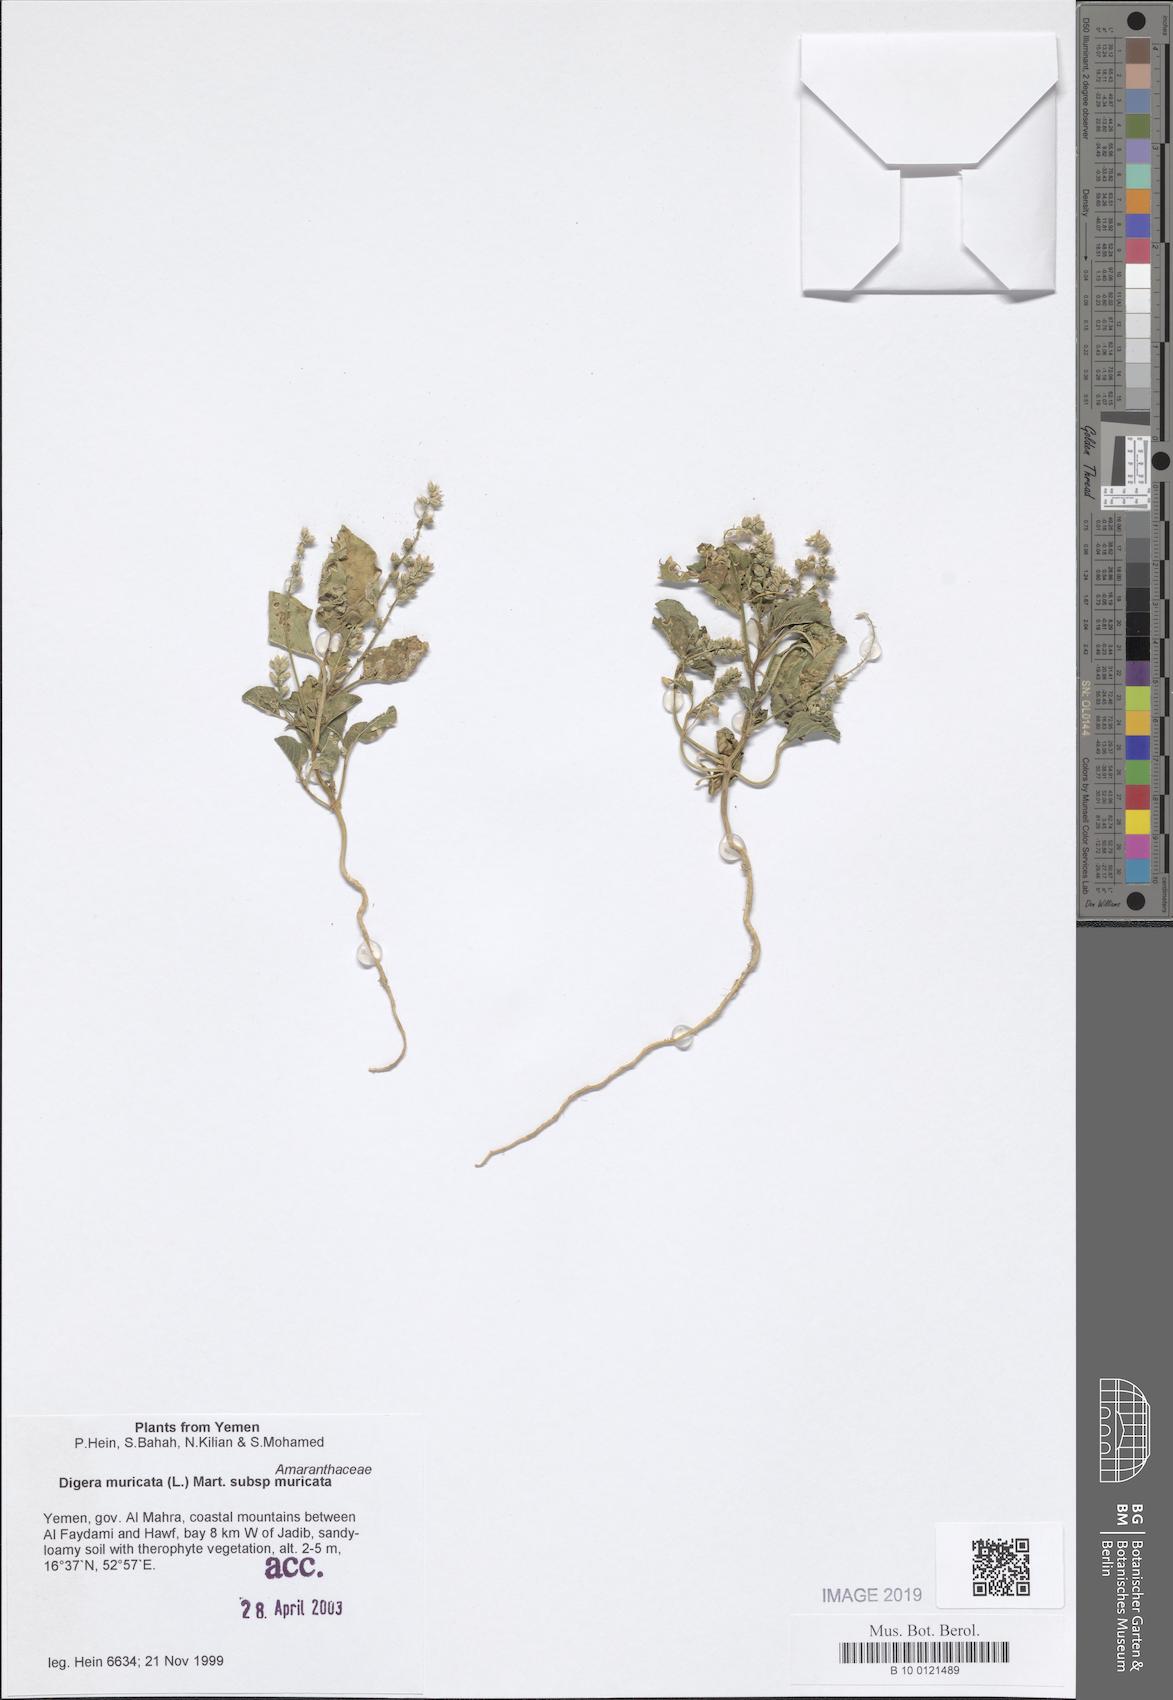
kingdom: Plantae
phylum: Tracheophyta
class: Magnoliopsida
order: Caryophyllales
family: Amaranthaceae
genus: Digera
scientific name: Digera muricata
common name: False amaranth
